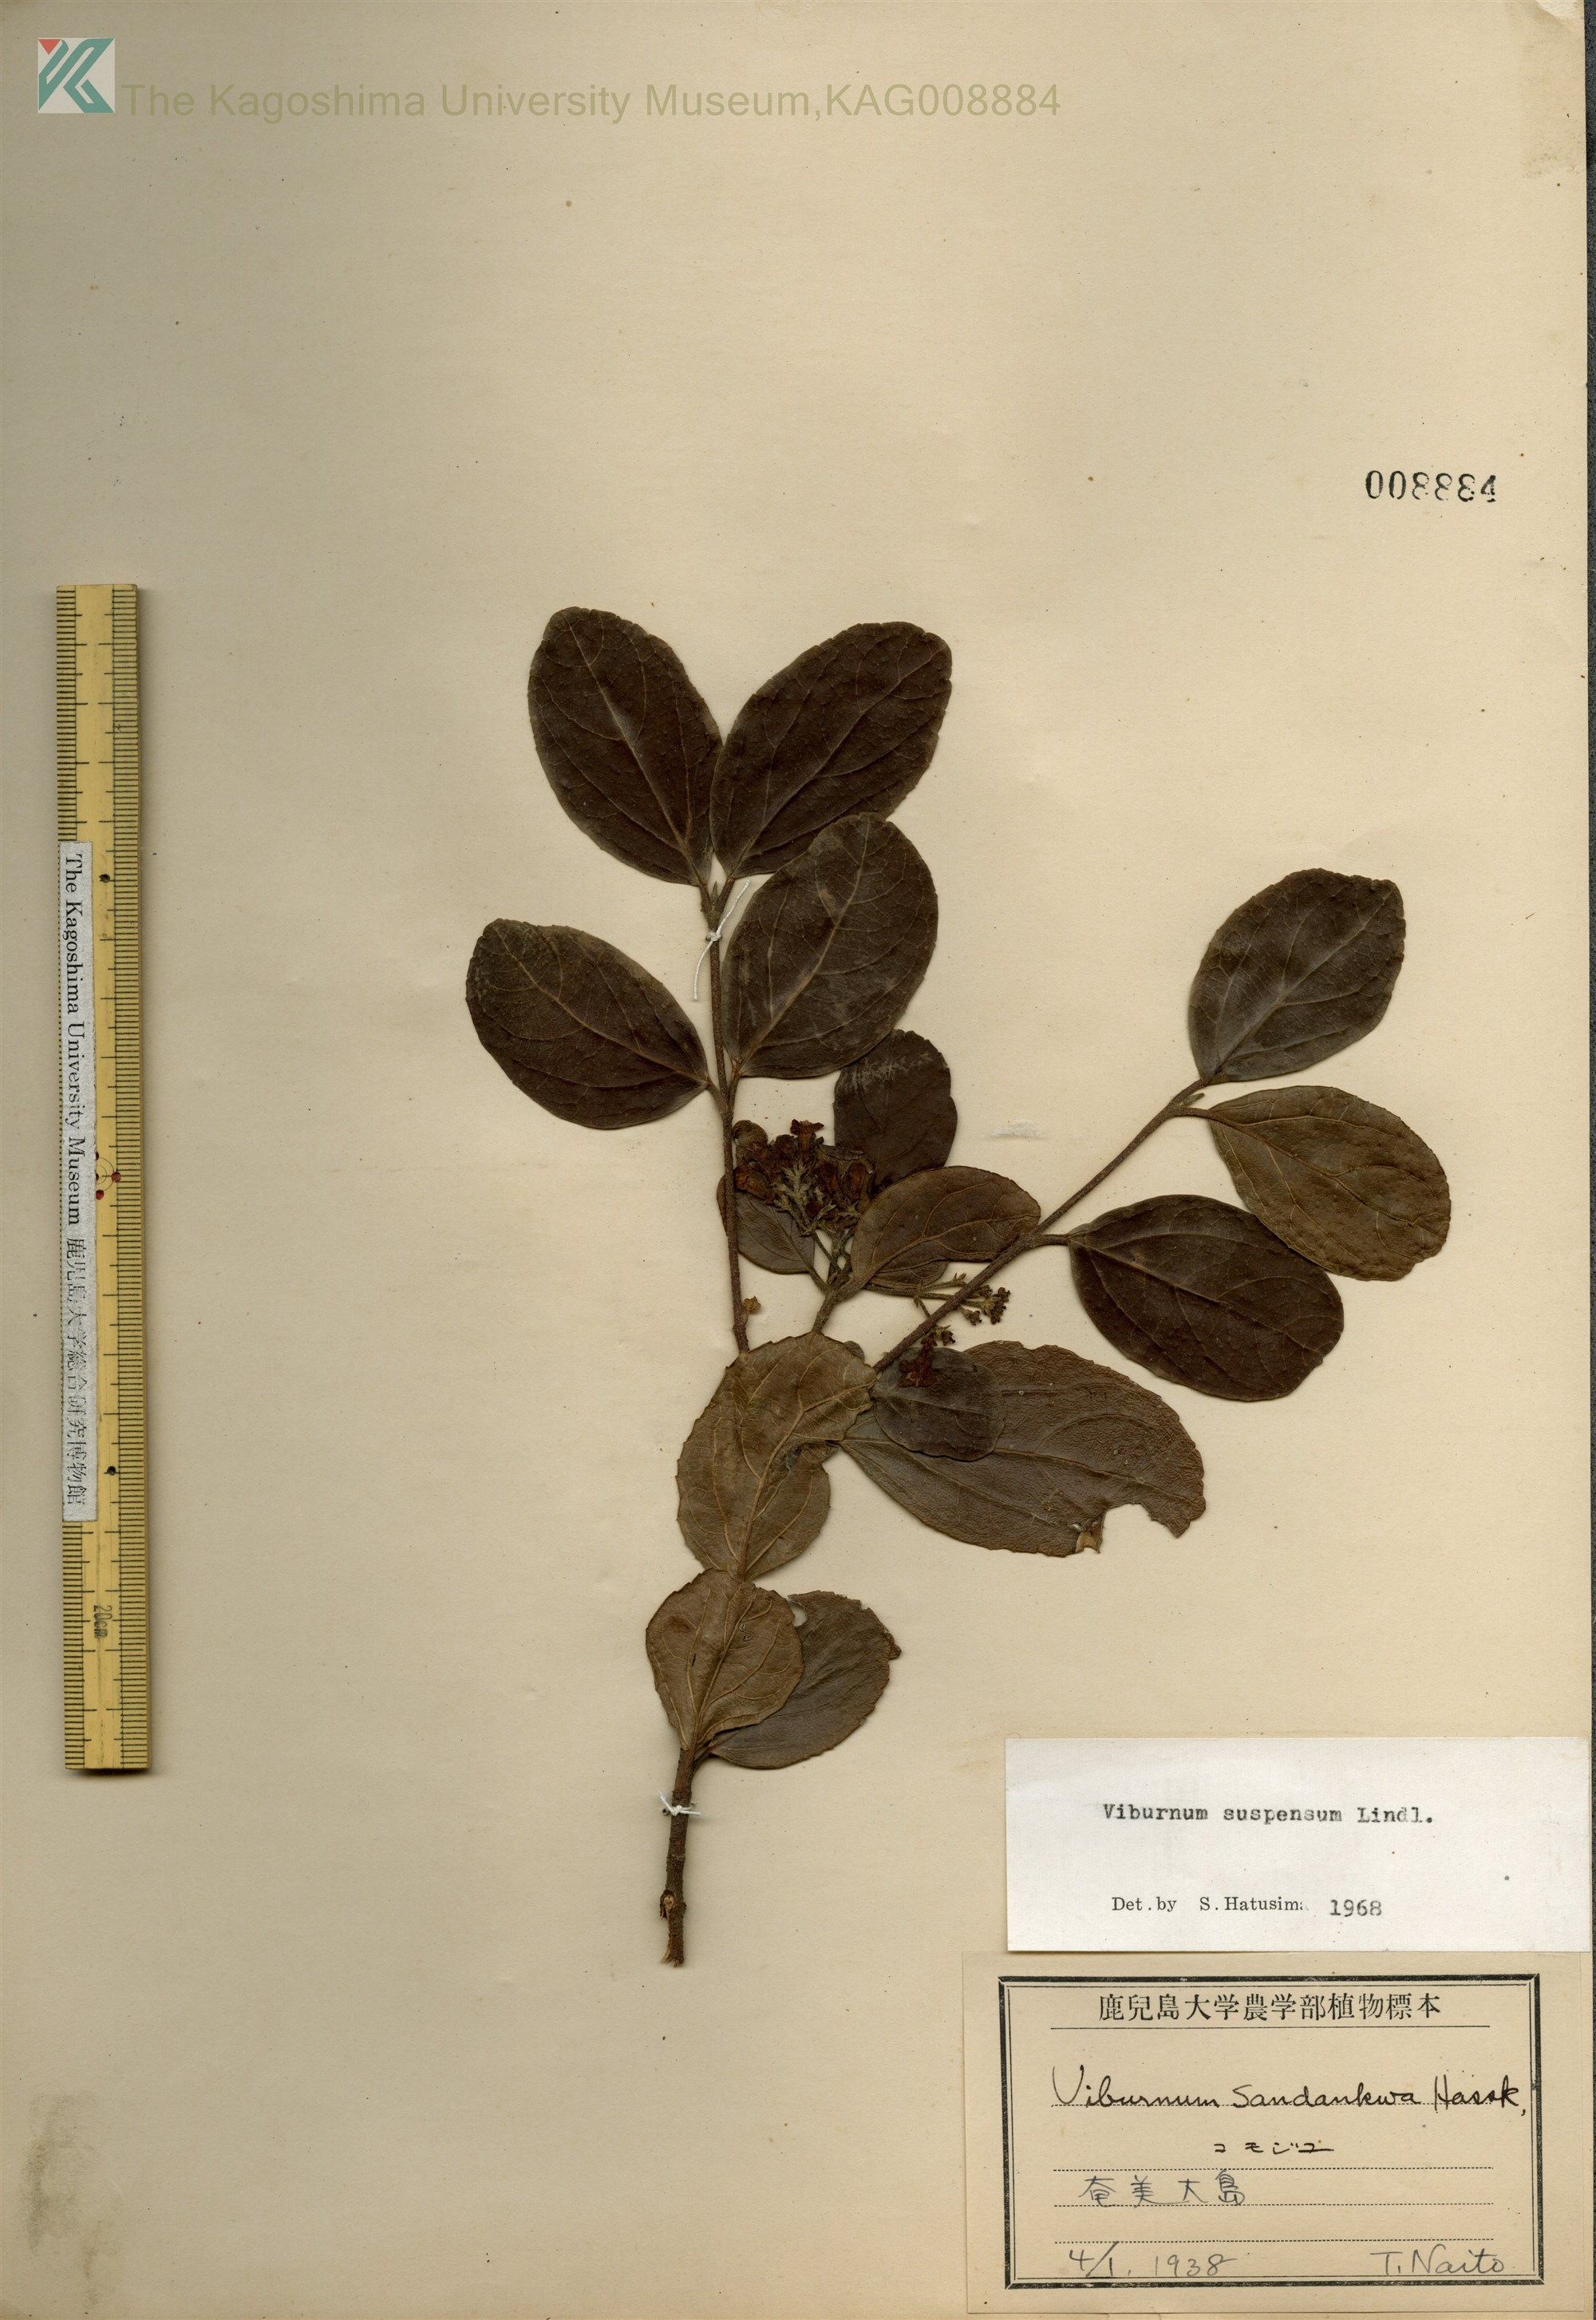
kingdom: Plantae
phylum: Tracheophyta
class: Magnoliopsida
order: Dipsacales
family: Viburnaceae
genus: Viburnum
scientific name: Viburnum suspensum
